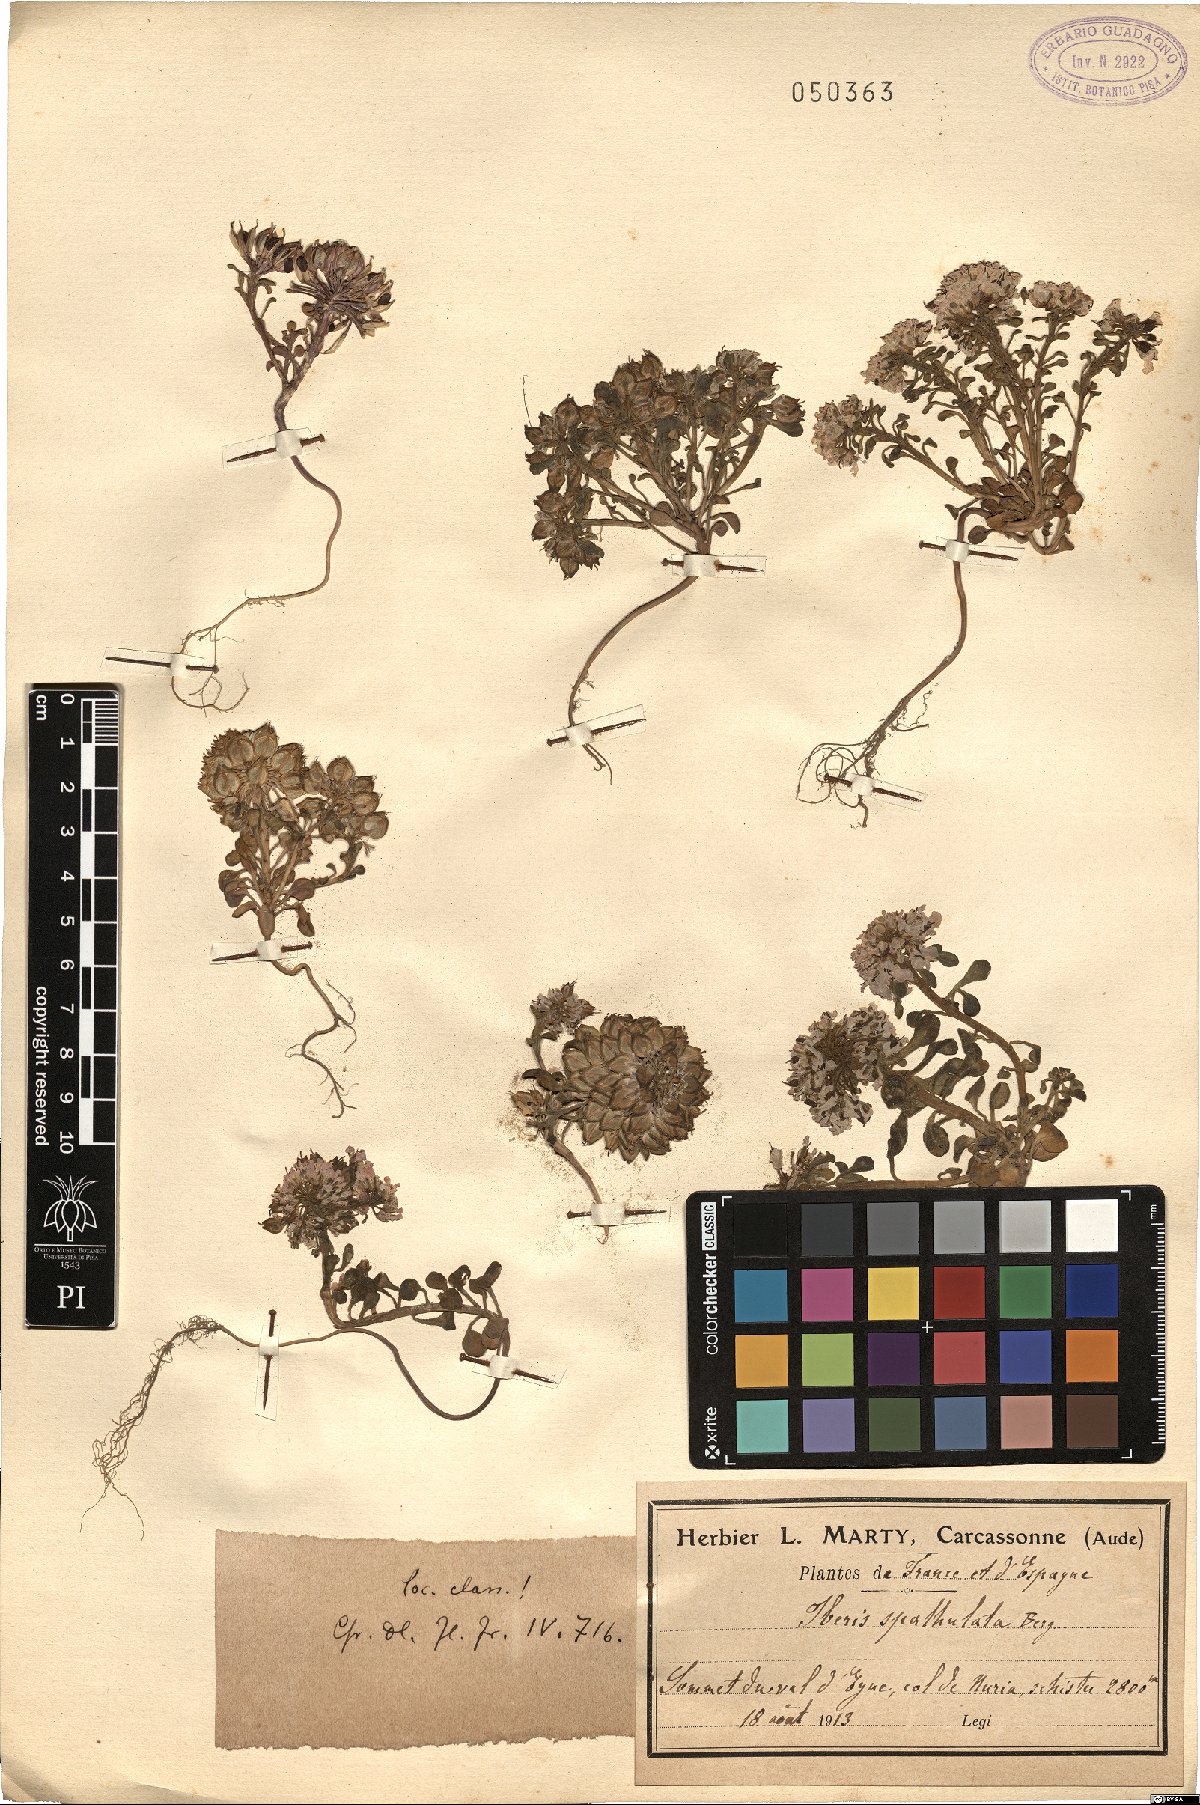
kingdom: Plantae
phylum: Tracheophyta
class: Magnoliopsida
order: Brassicales
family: Brassicaceae
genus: Iberis
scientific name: Iberis spathulata
